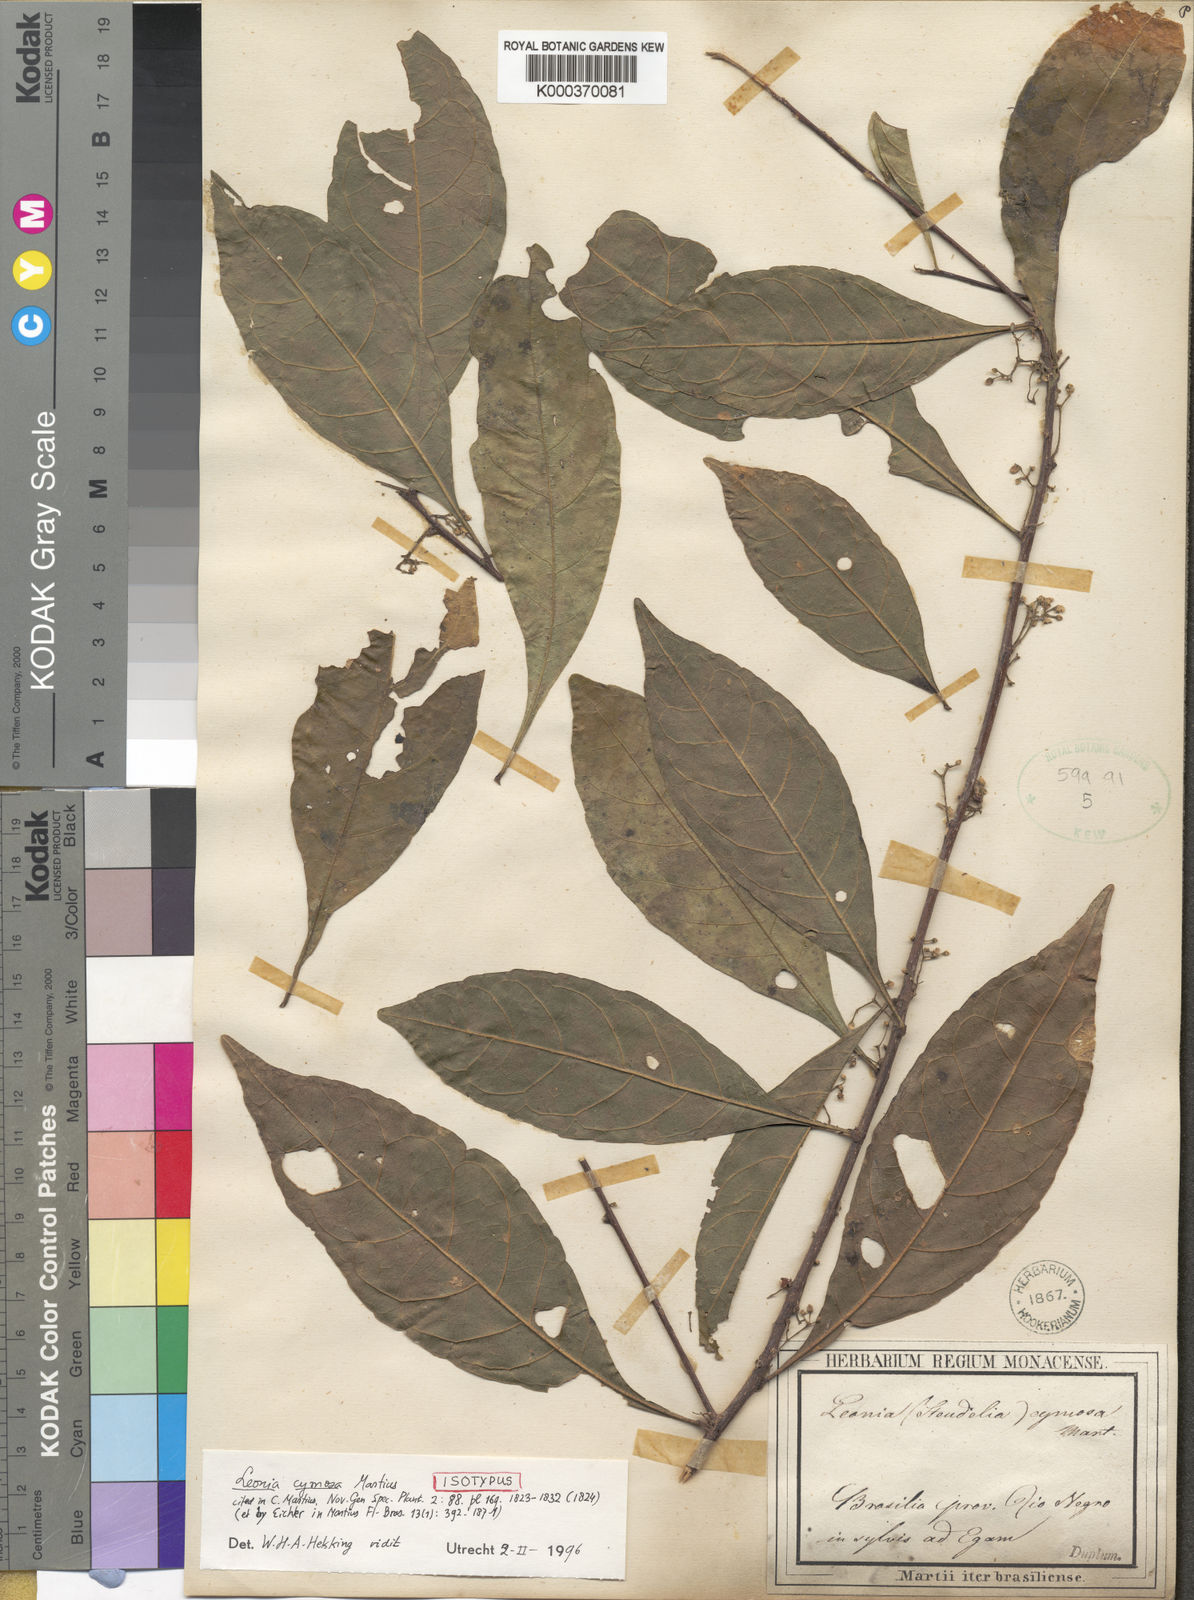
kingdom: Plantae
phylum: Tracheophyta
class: Magnoliopsida
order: Malpighiales
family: Violaceae
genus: Leonia
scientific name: Leonia cymosa
